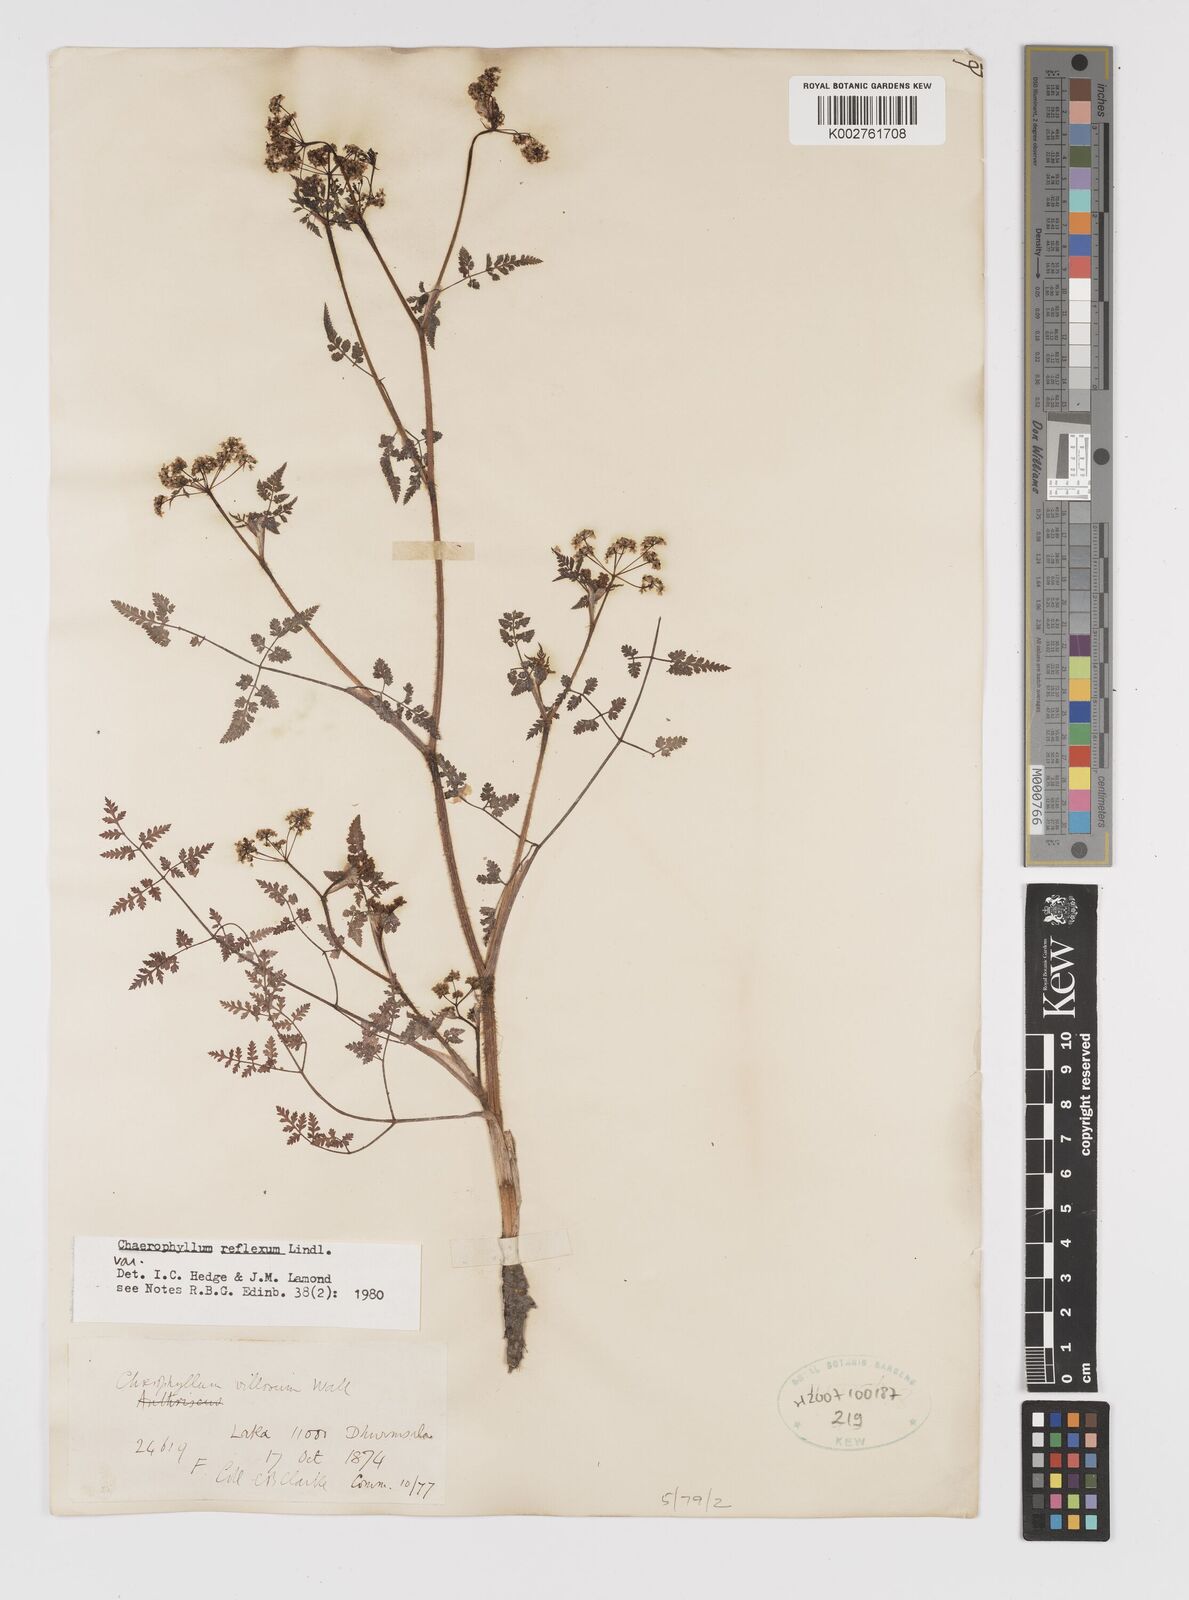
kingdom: Plantae
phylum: Tracheophyta
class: Magnoliopsida
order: Apiales
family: Apiaceae
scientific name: Apiaceae
